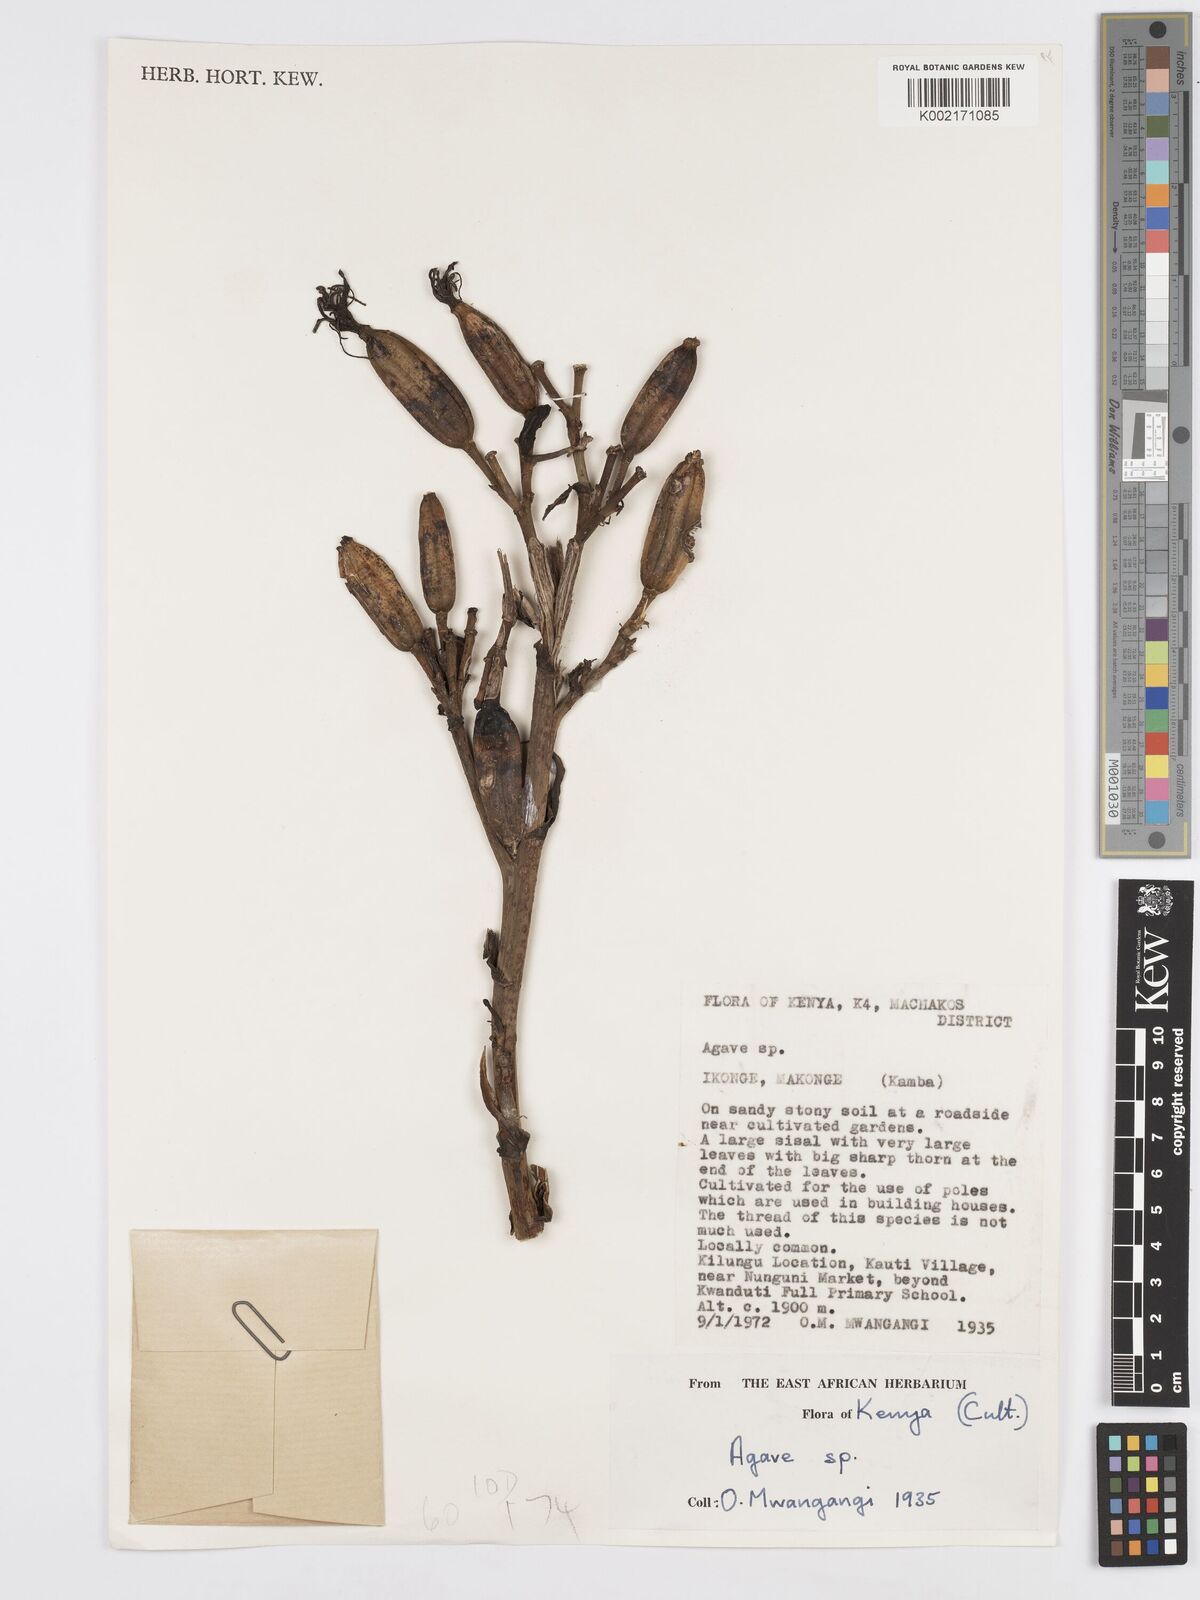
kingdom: Plantae
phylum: Tracheophyta
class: Liliopsida
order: Asparagales
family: Asparagaceae
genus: Agave
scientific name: Agave
